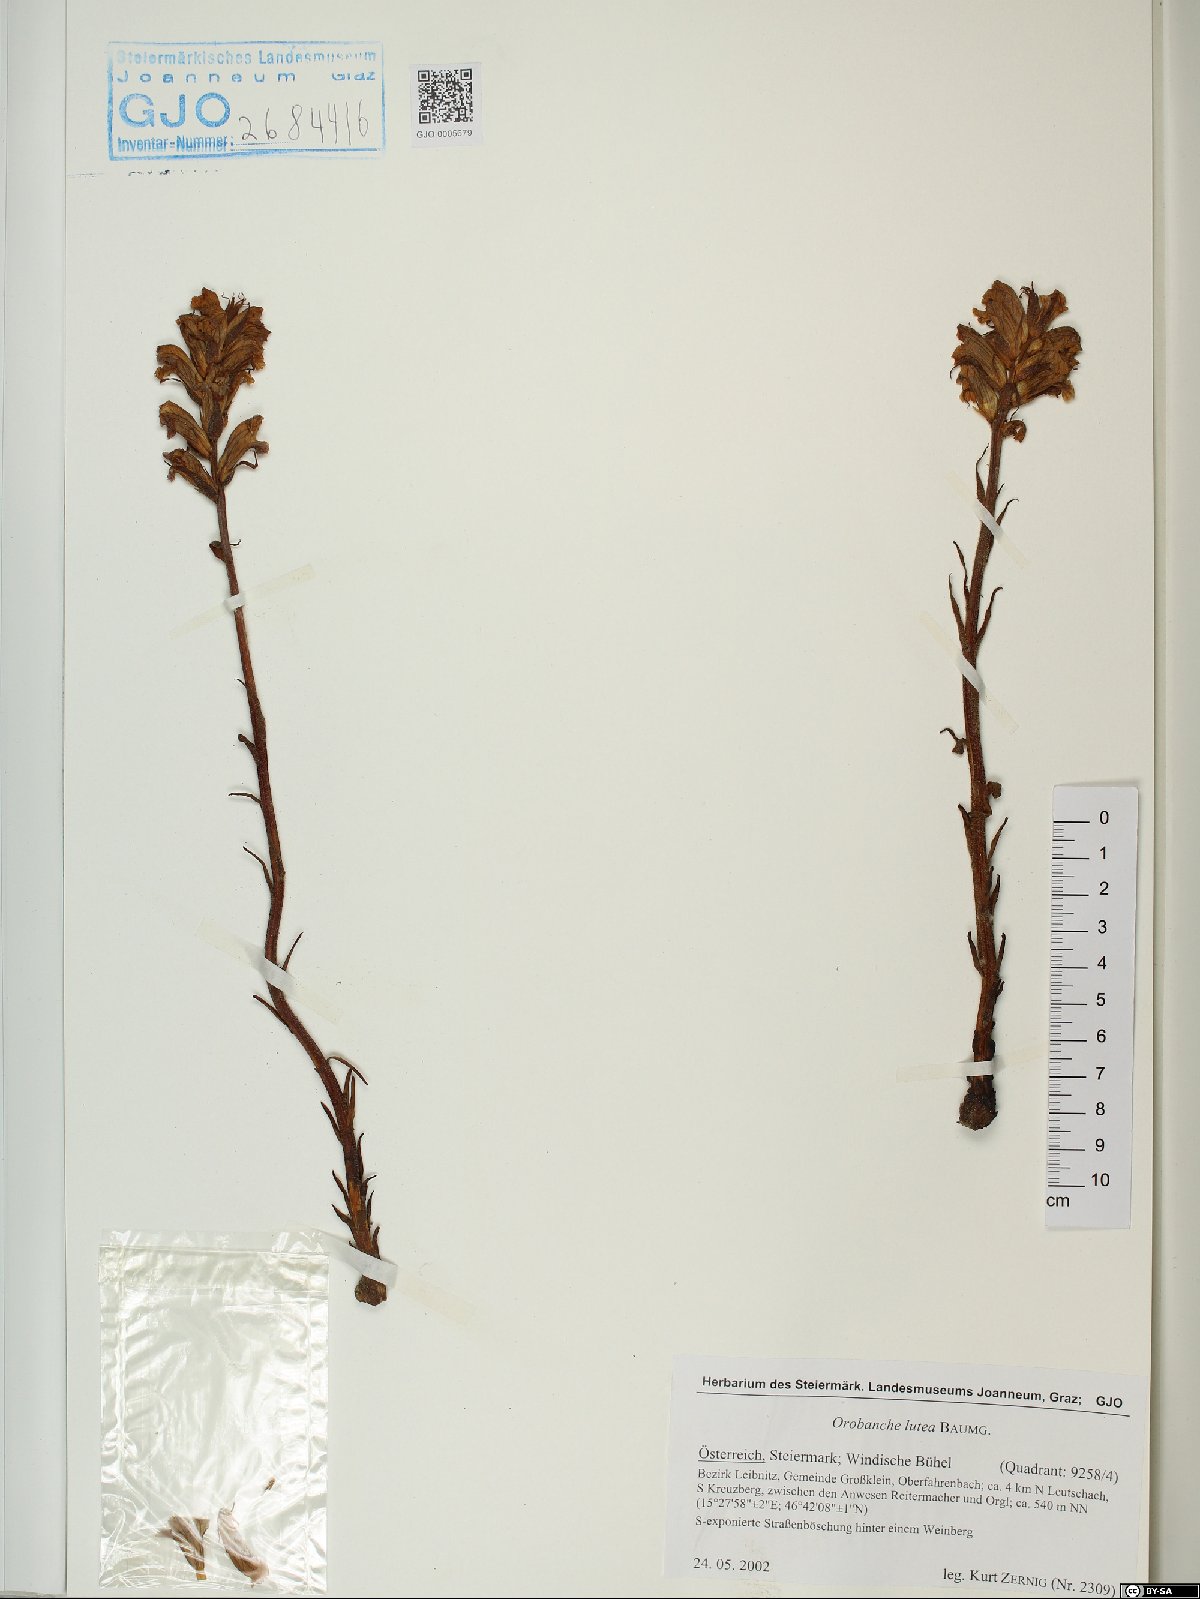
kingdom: Plantae
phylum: Tracheophyta
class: Magnoliopsida
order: Lamiales
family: Orobanchaceae
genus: Orobanche
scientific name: Orobanche lutea
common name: Yellow broomrape
